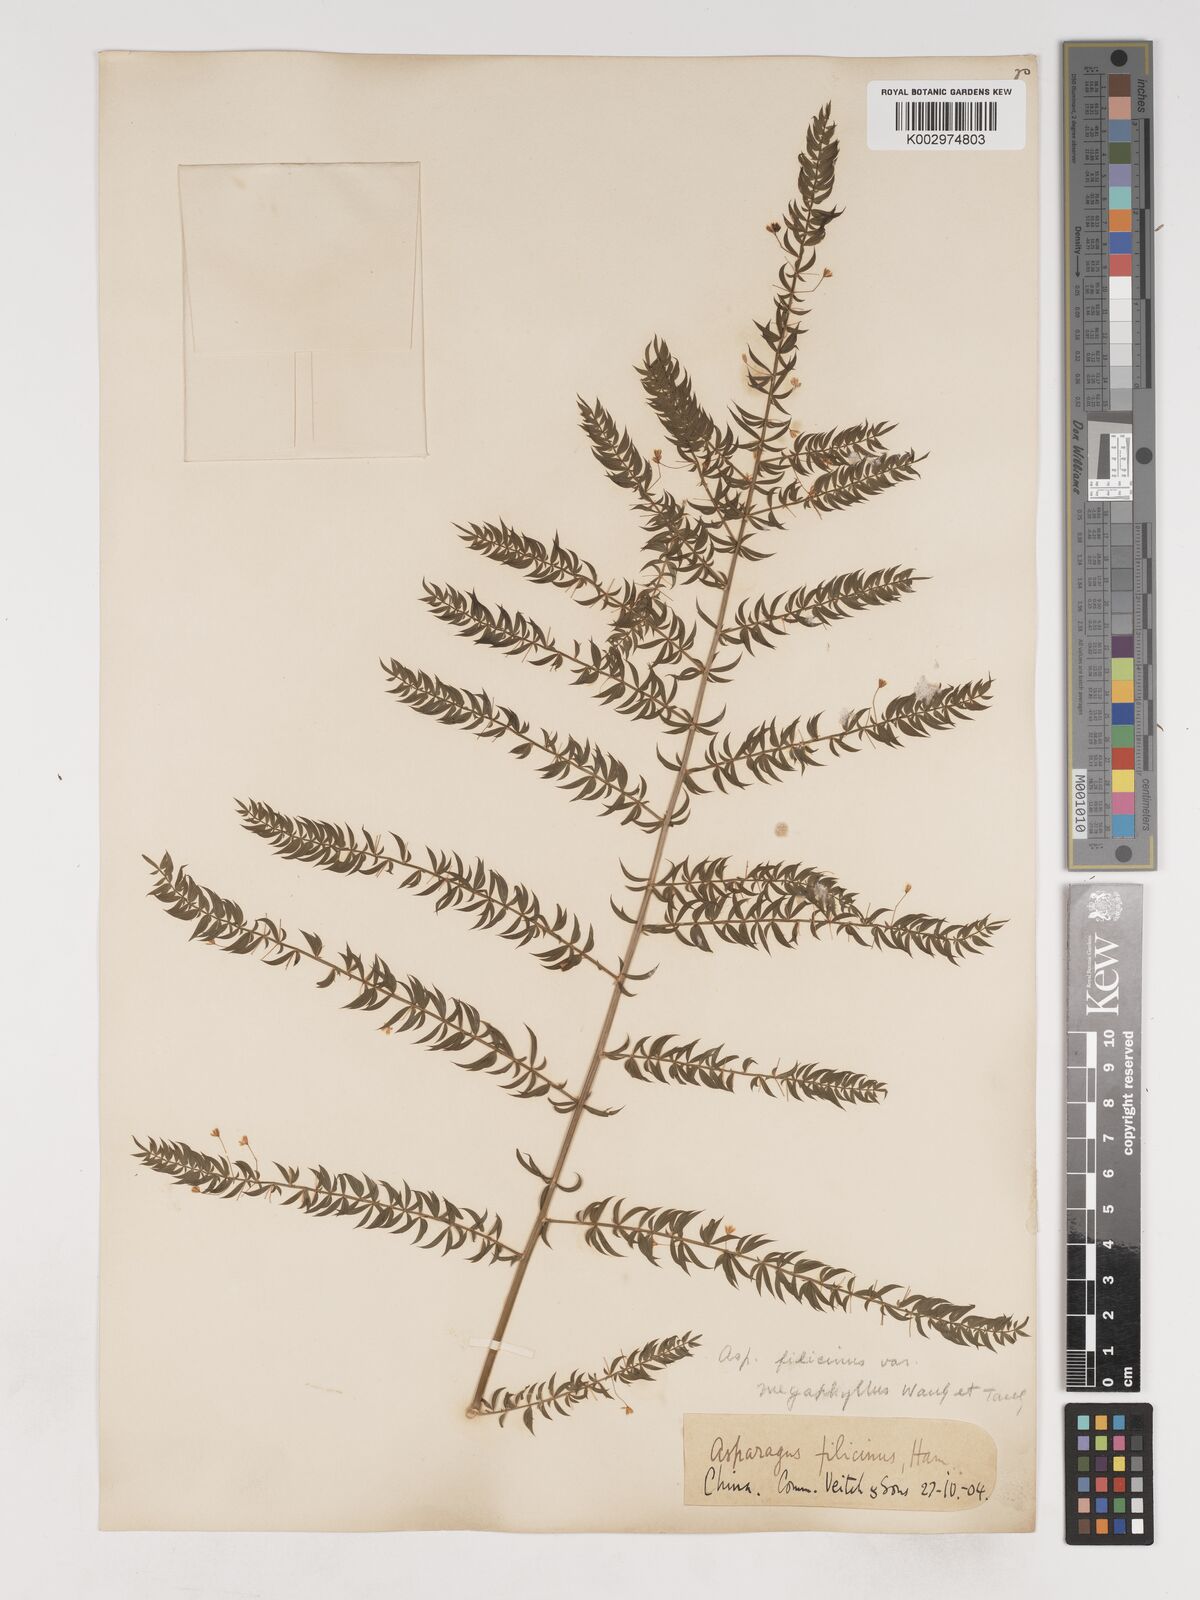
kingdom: Plantae
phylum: Tracheophyta
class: Liliopsida
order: Asparagales
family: Asparagaceae
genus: Asparagus
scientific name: Asparagus filicinus
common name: Fern asparagus
